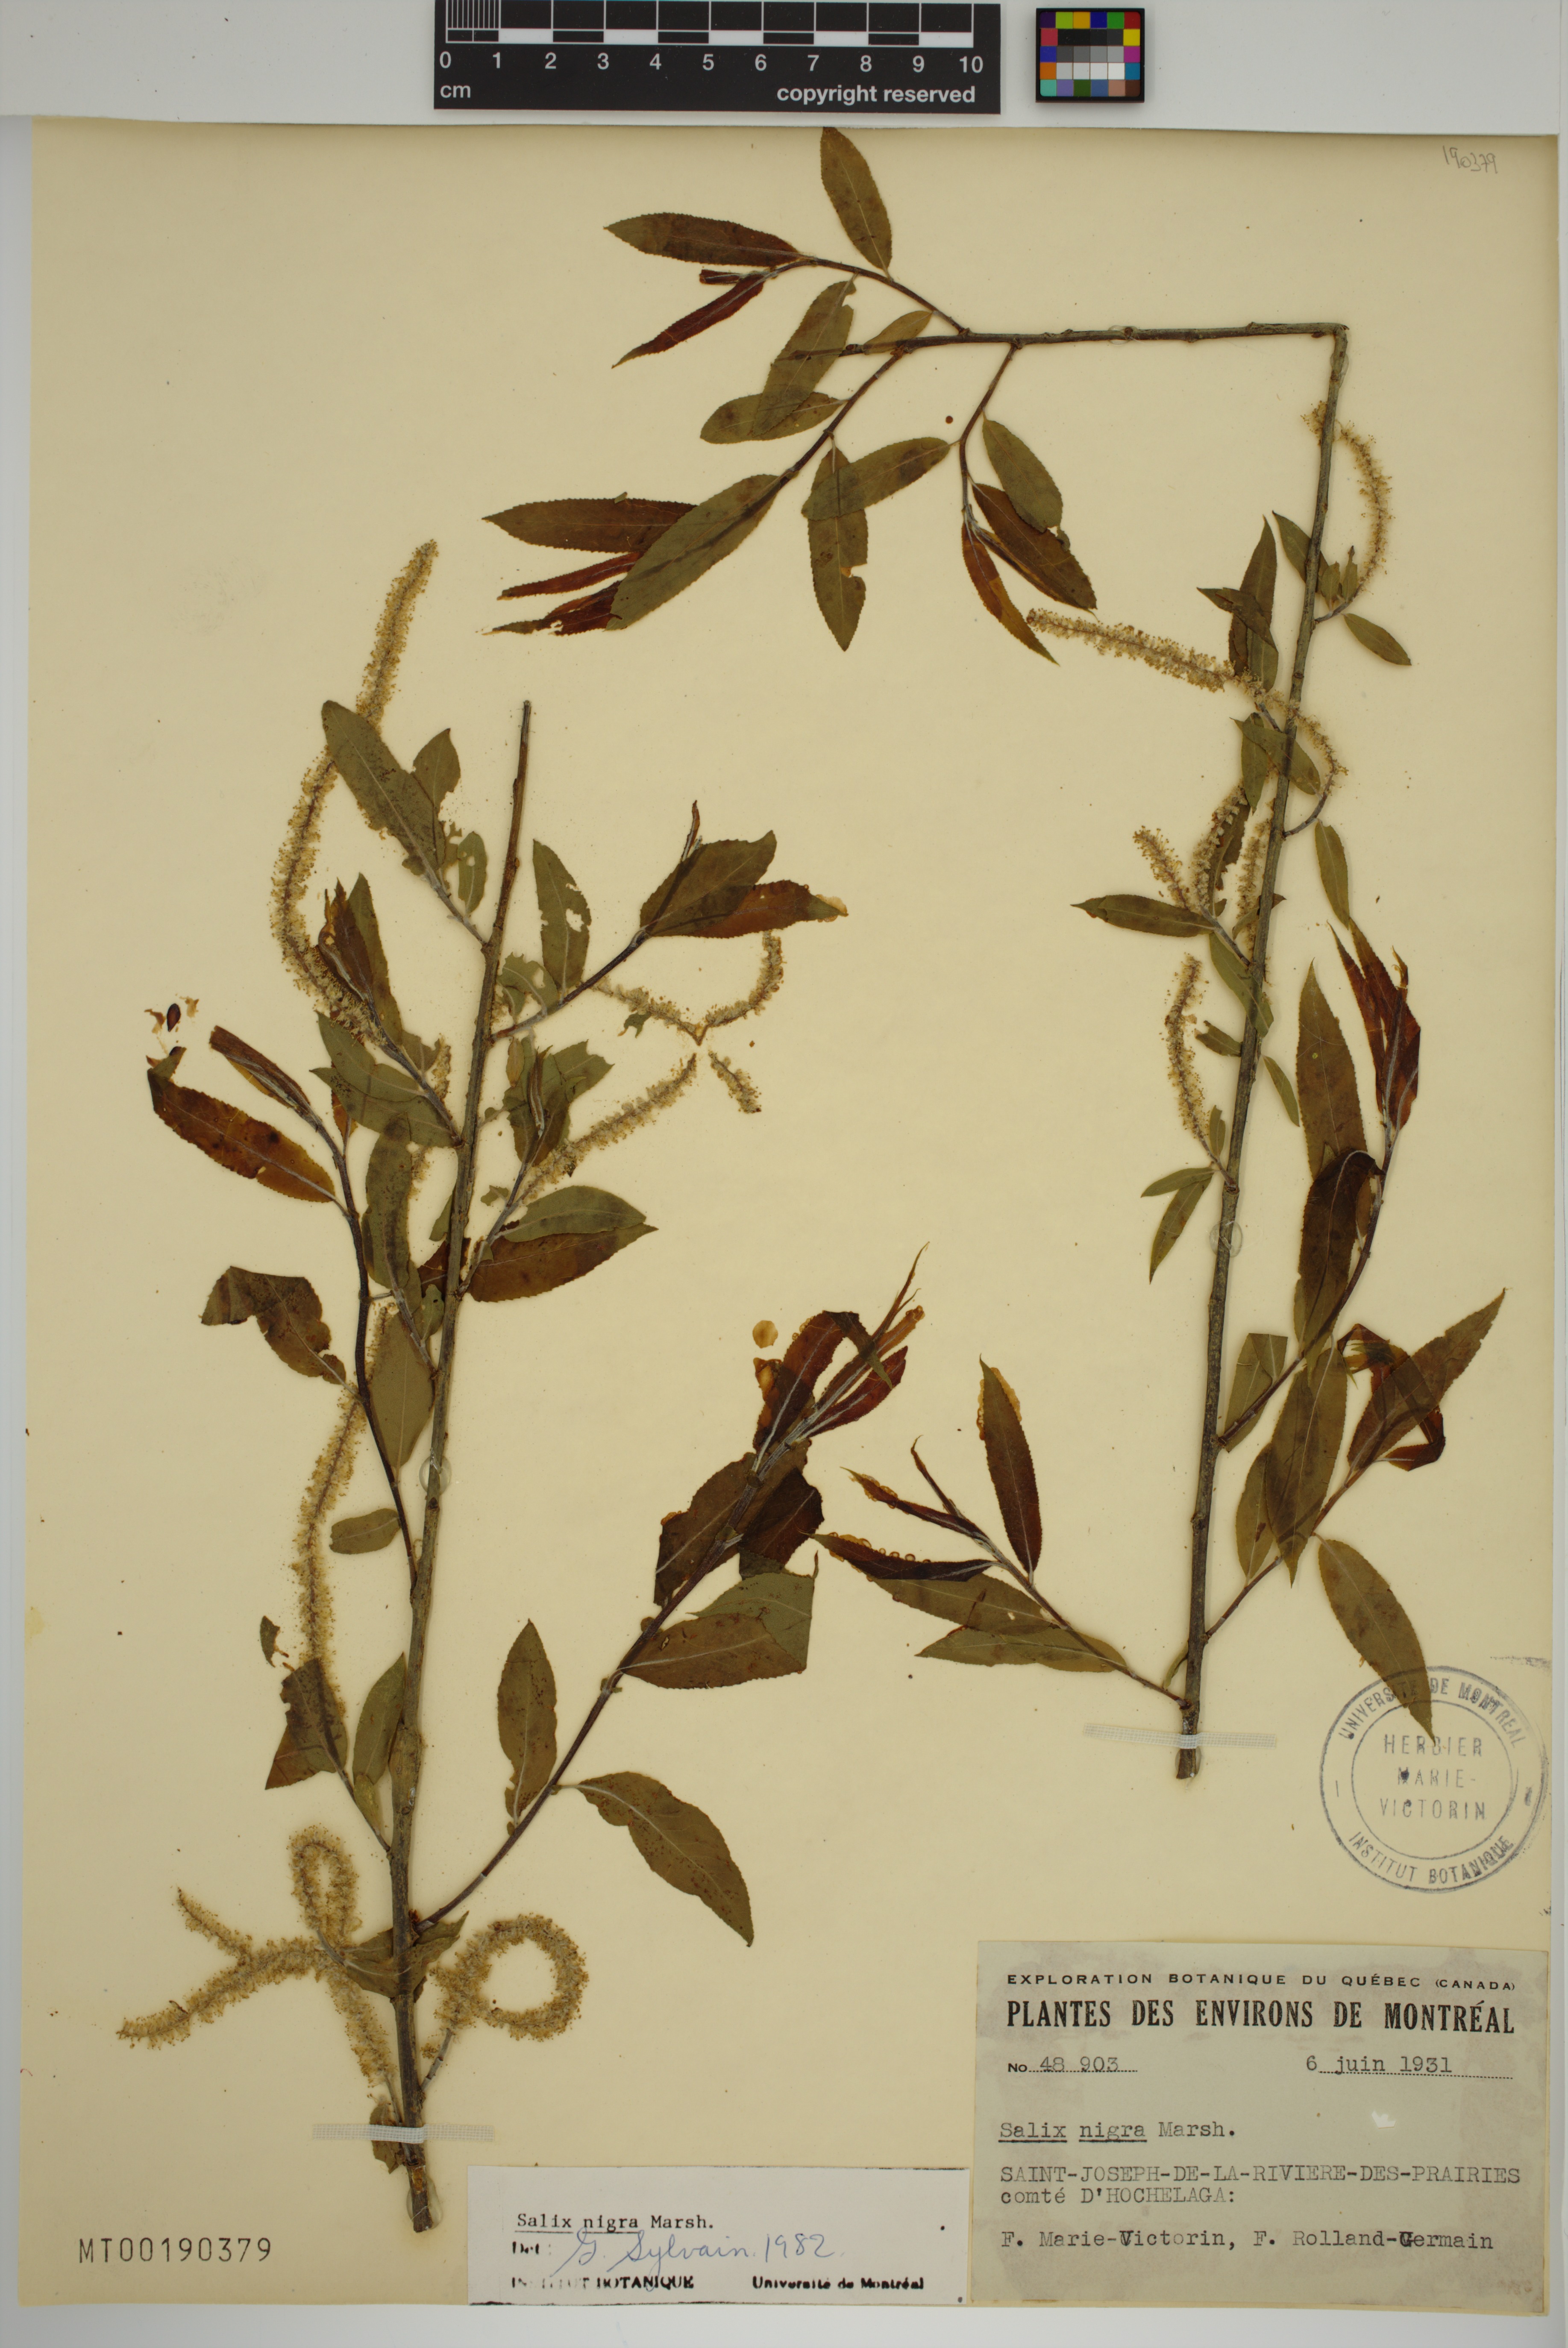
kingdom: Plantae
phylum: Tracheophyta
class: Magnoliopsida
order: Malpighiales
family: Salicaceae
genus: Salix
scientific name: Salix nigra
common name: Black willow
